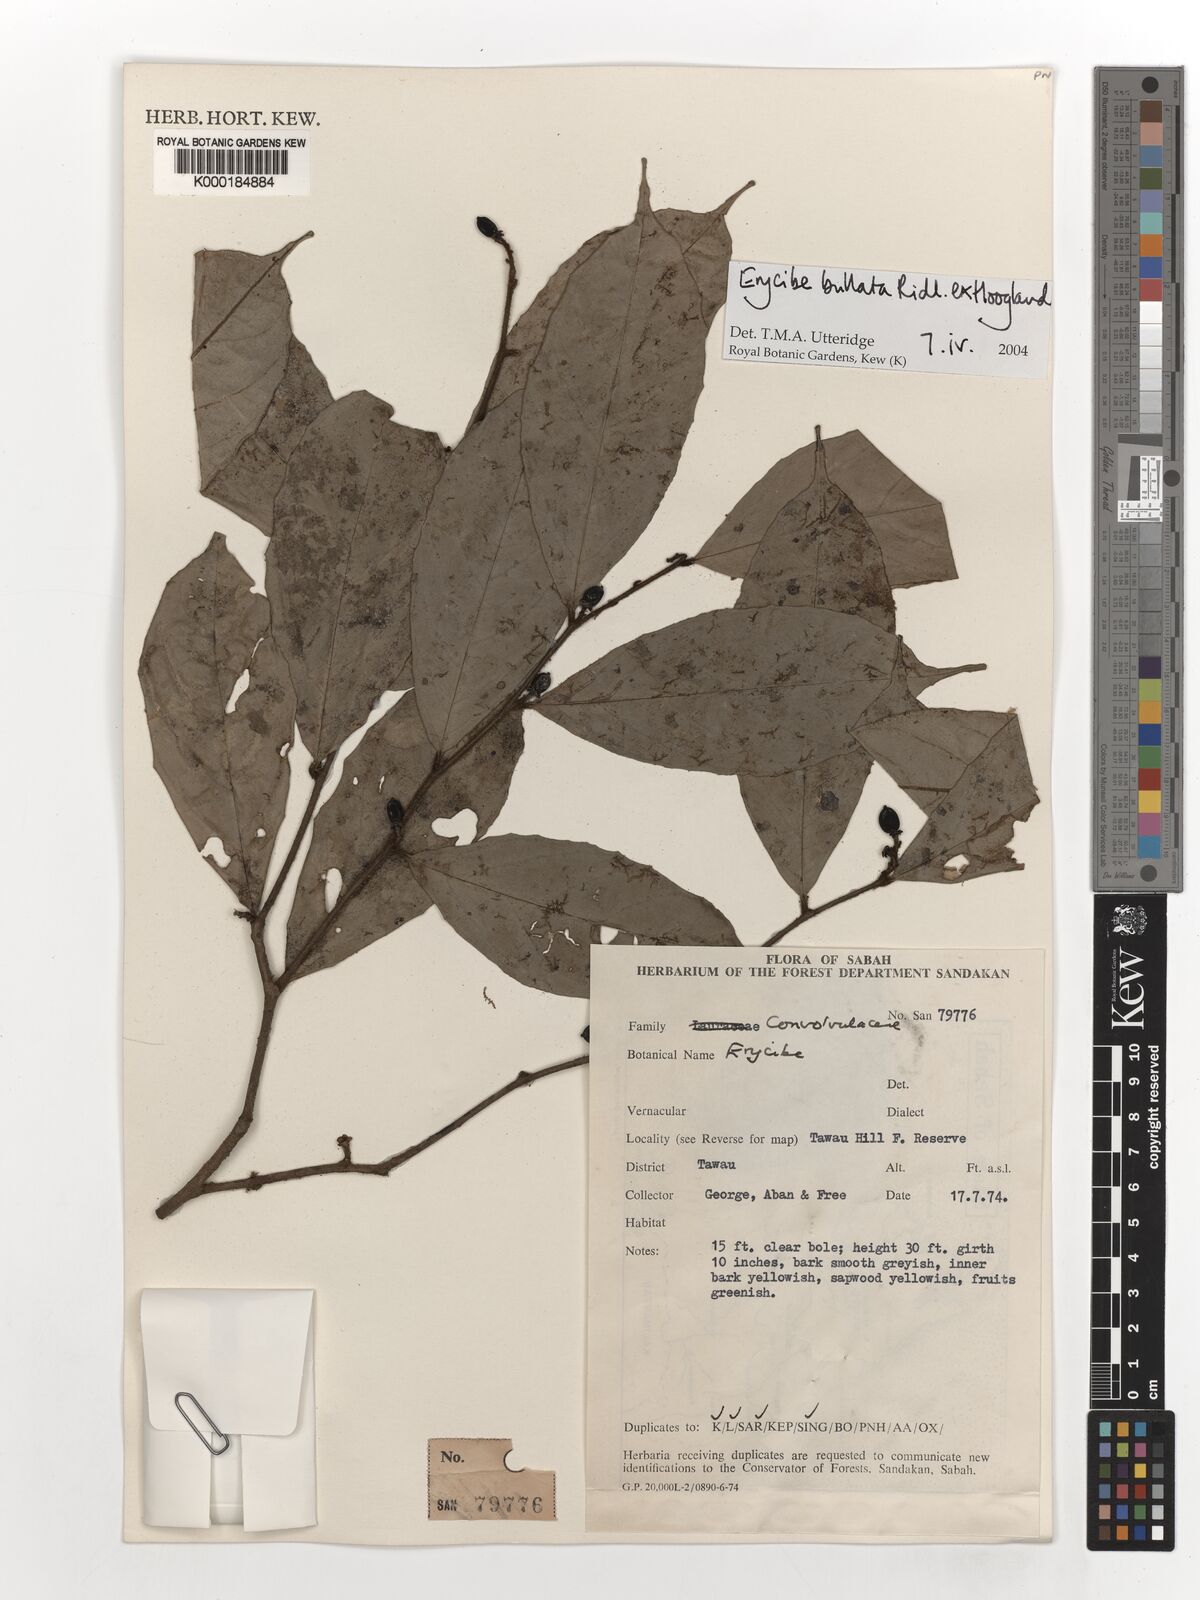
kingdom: Plantae
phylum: Tracheophyta
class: Magnoliopsida
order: Solanales
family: Convolvulaceae
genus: Erycibe
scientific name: Erycibe bullata
